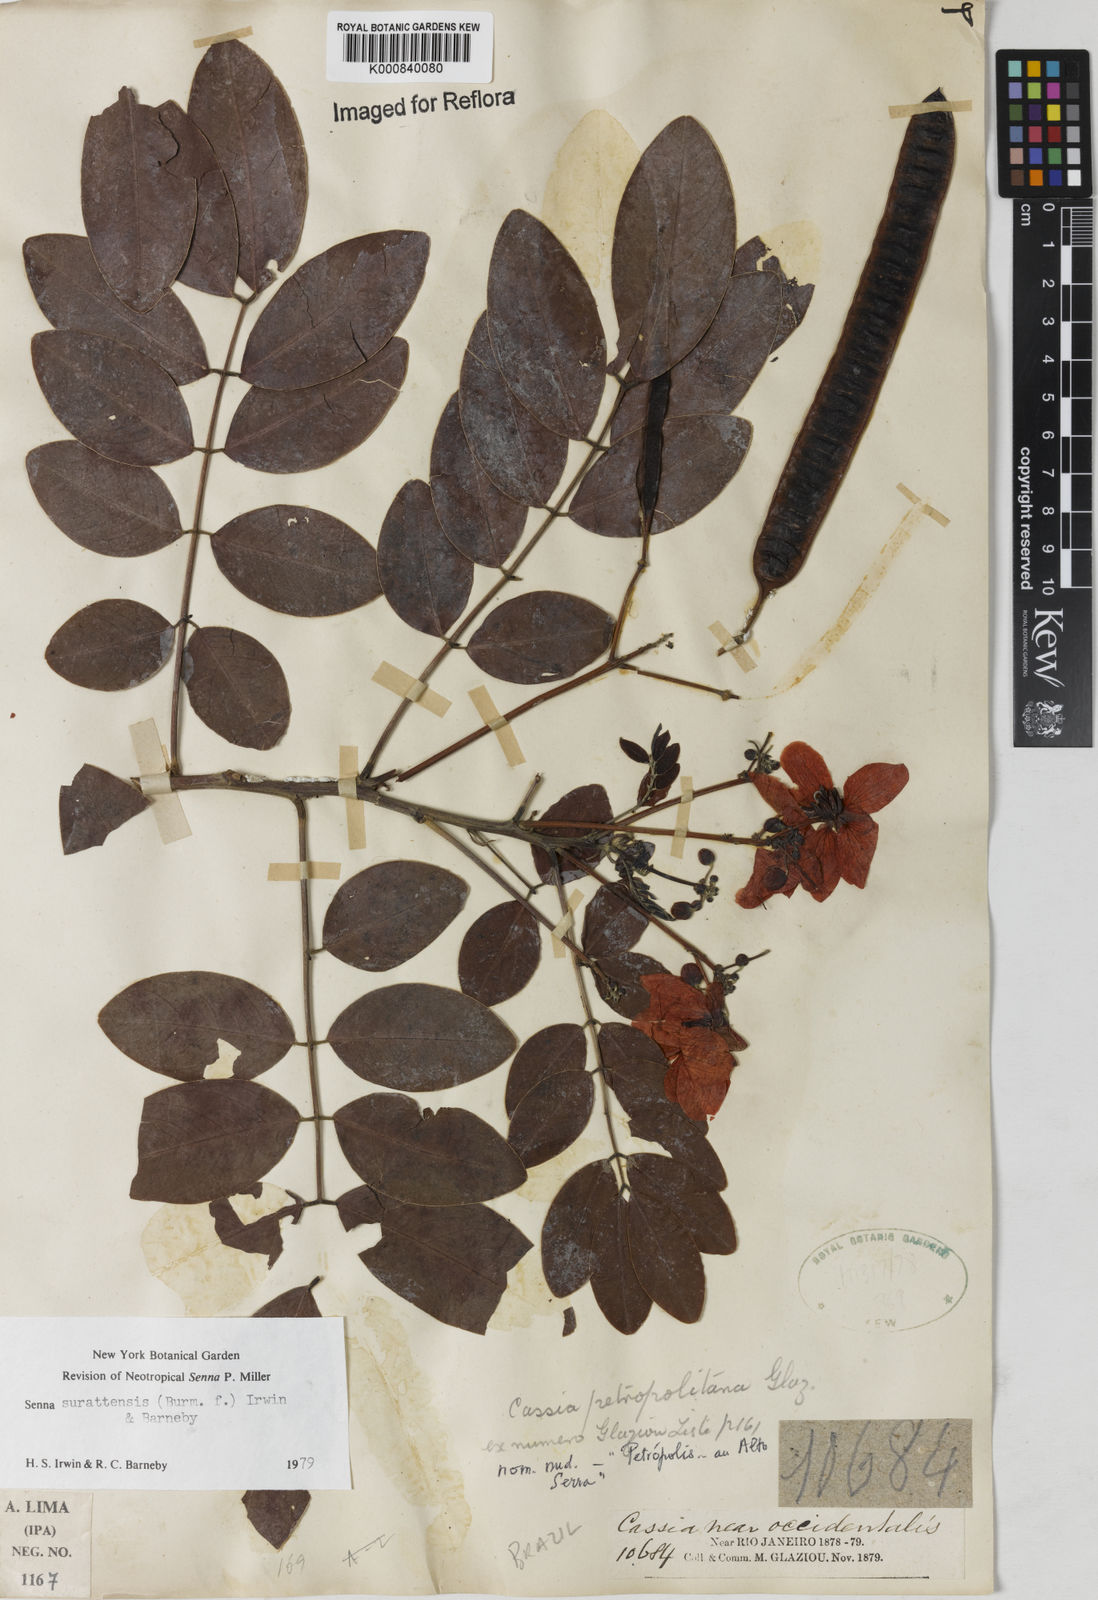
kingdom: Plantae
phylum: Tracheophyta
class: Magnoliopsida
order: Fabales
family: Fabaceae
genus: Senna
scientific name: Senna surattensis
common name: Glossy shower
